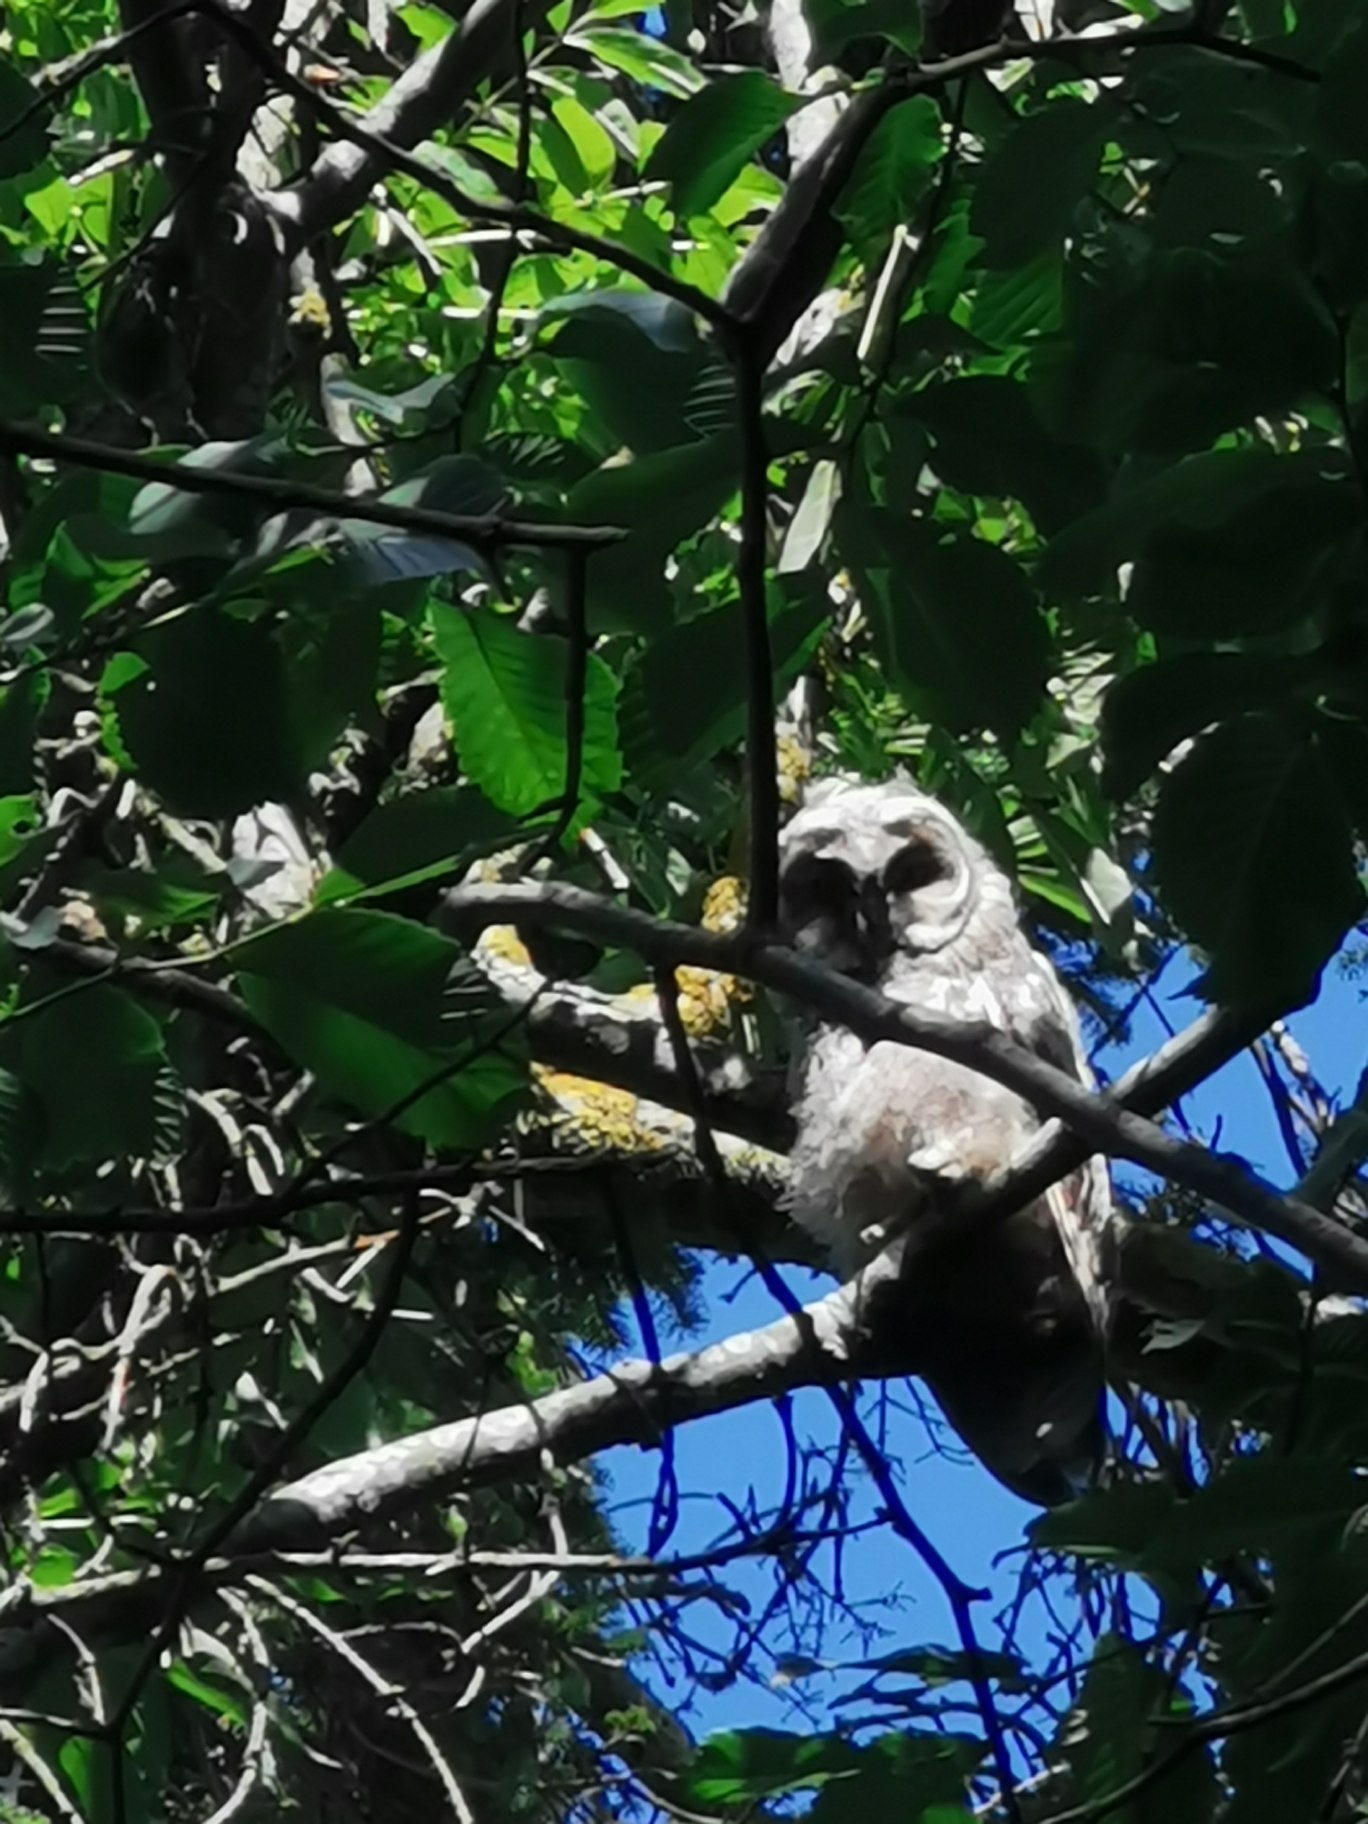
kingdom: Animalia
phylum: Chordata
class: Aves
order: Strigiformes
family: Strigidae
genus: Asio
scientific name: Asio otus
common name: Skovhornugle
